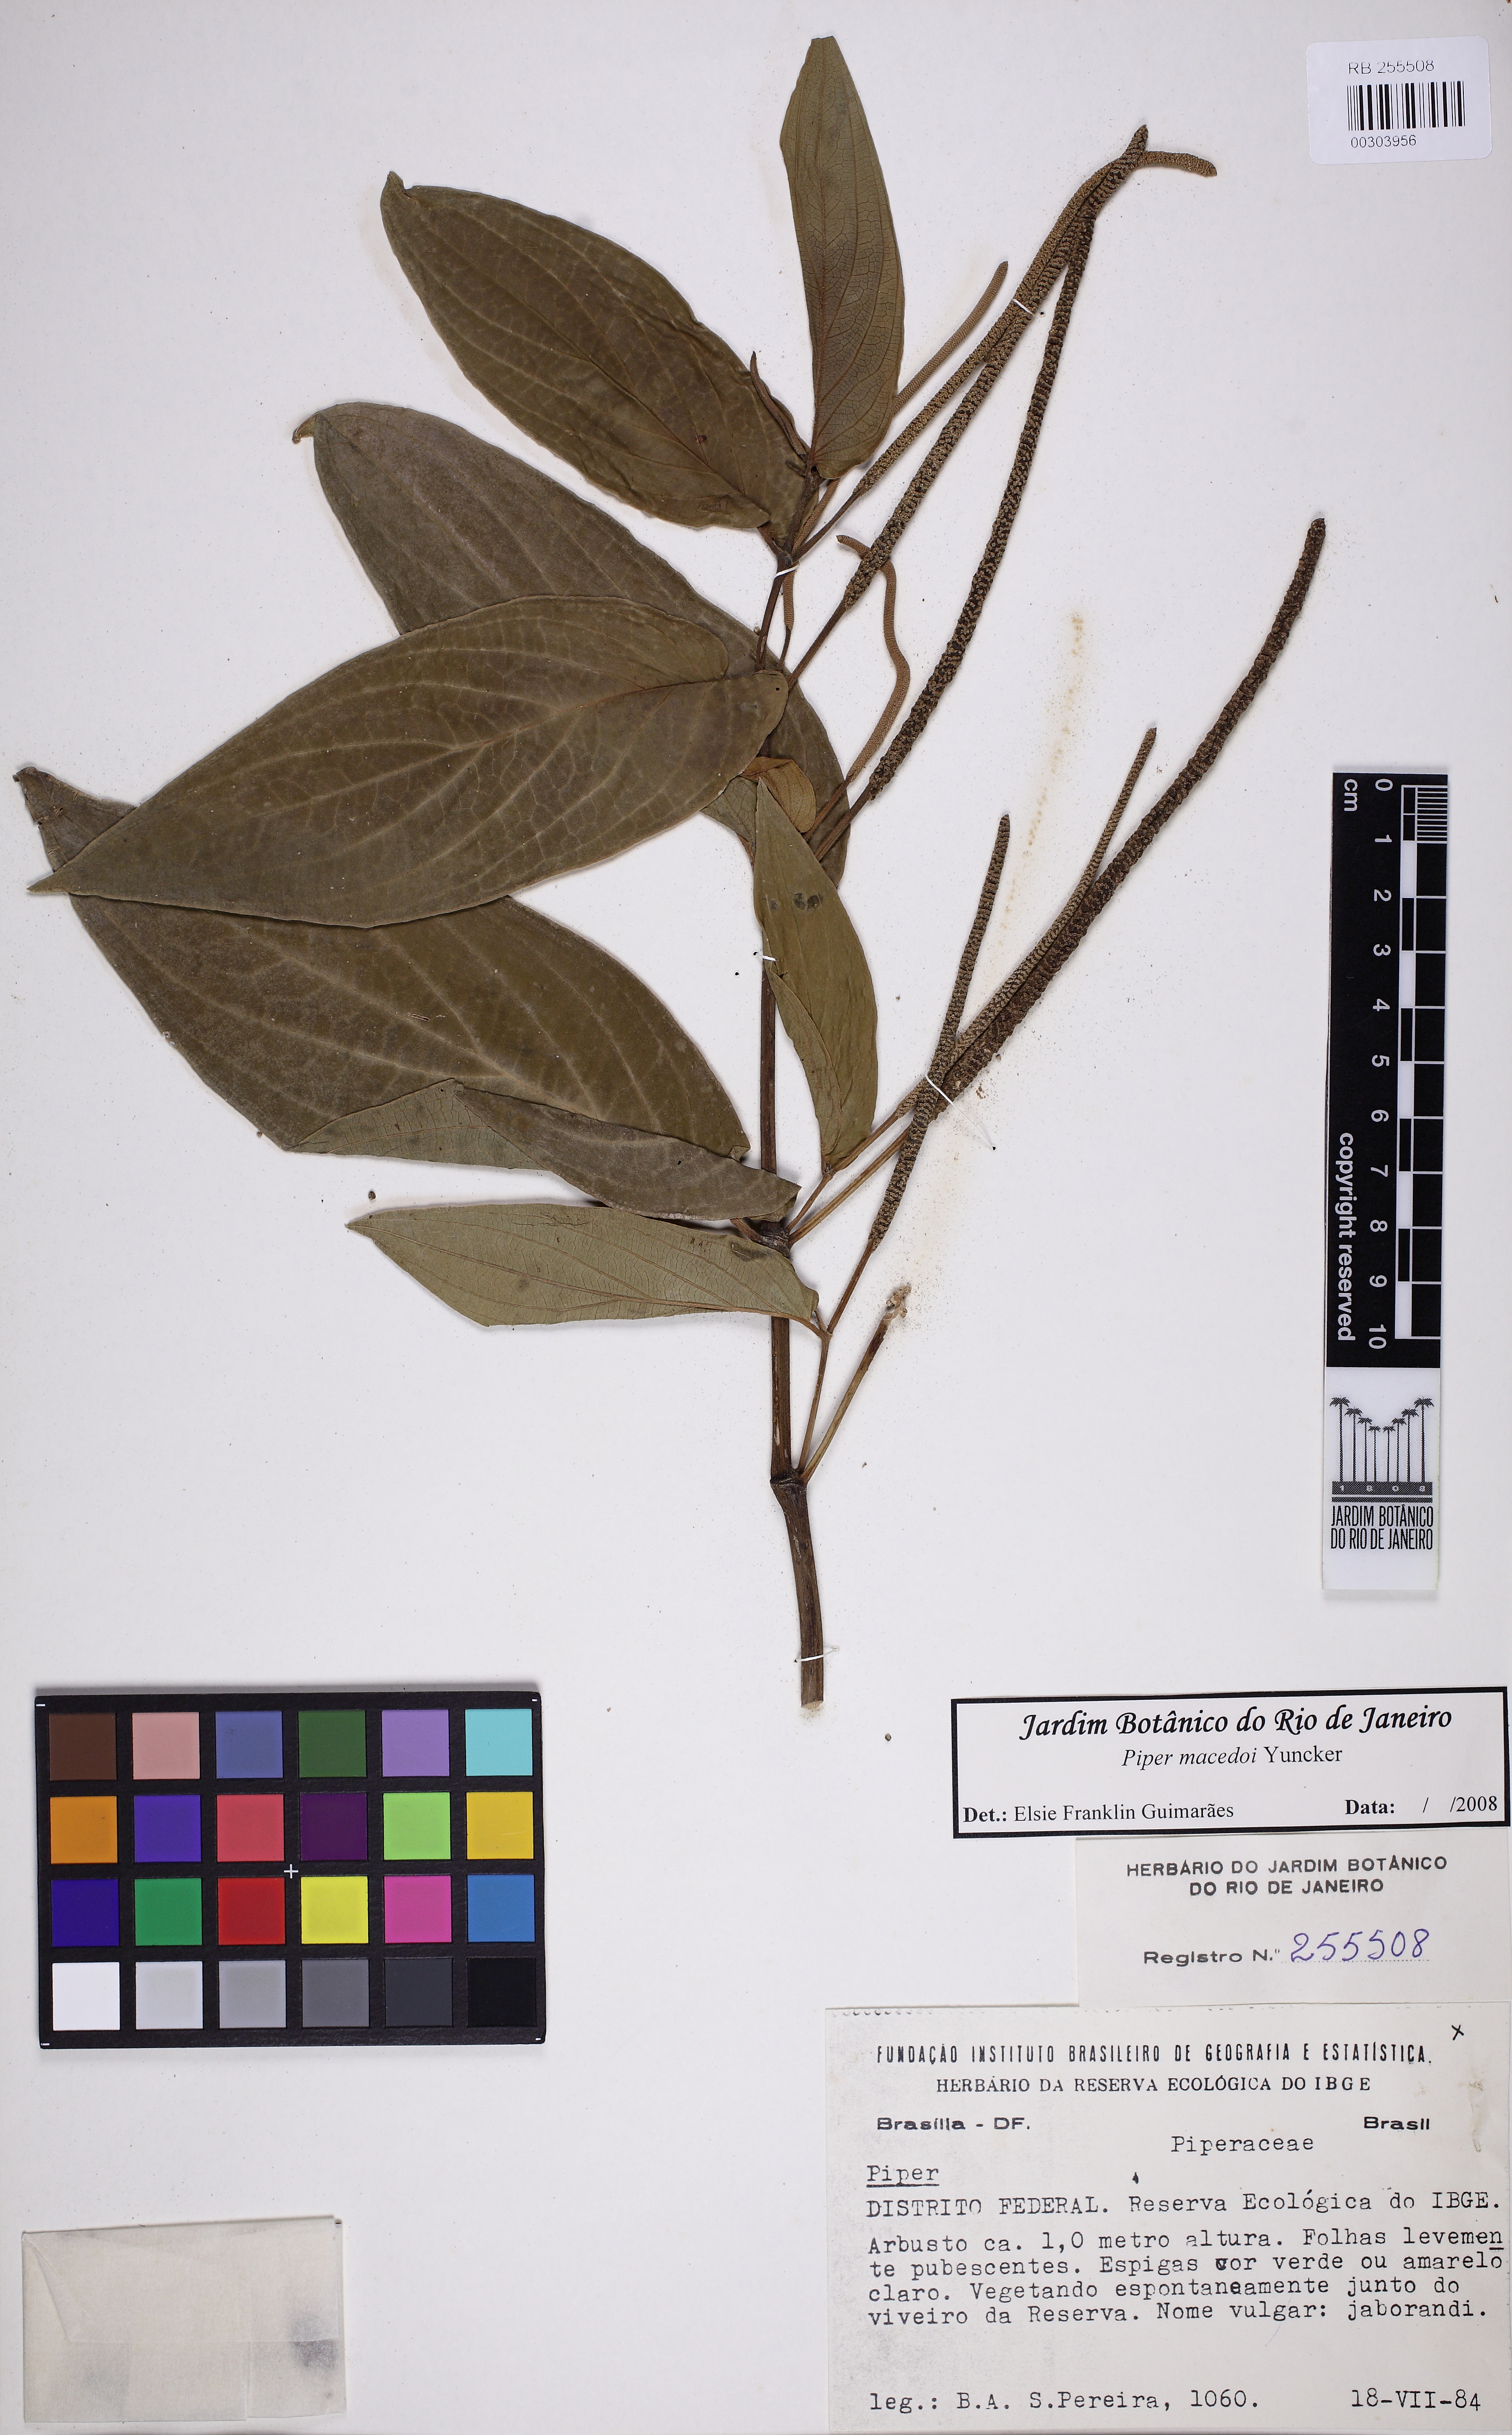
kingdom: Plantae
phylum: Tracheophyta
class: Magnoliopsida
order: Piperales
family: Piperaceae
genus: Piper
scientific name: Piper macedoi
